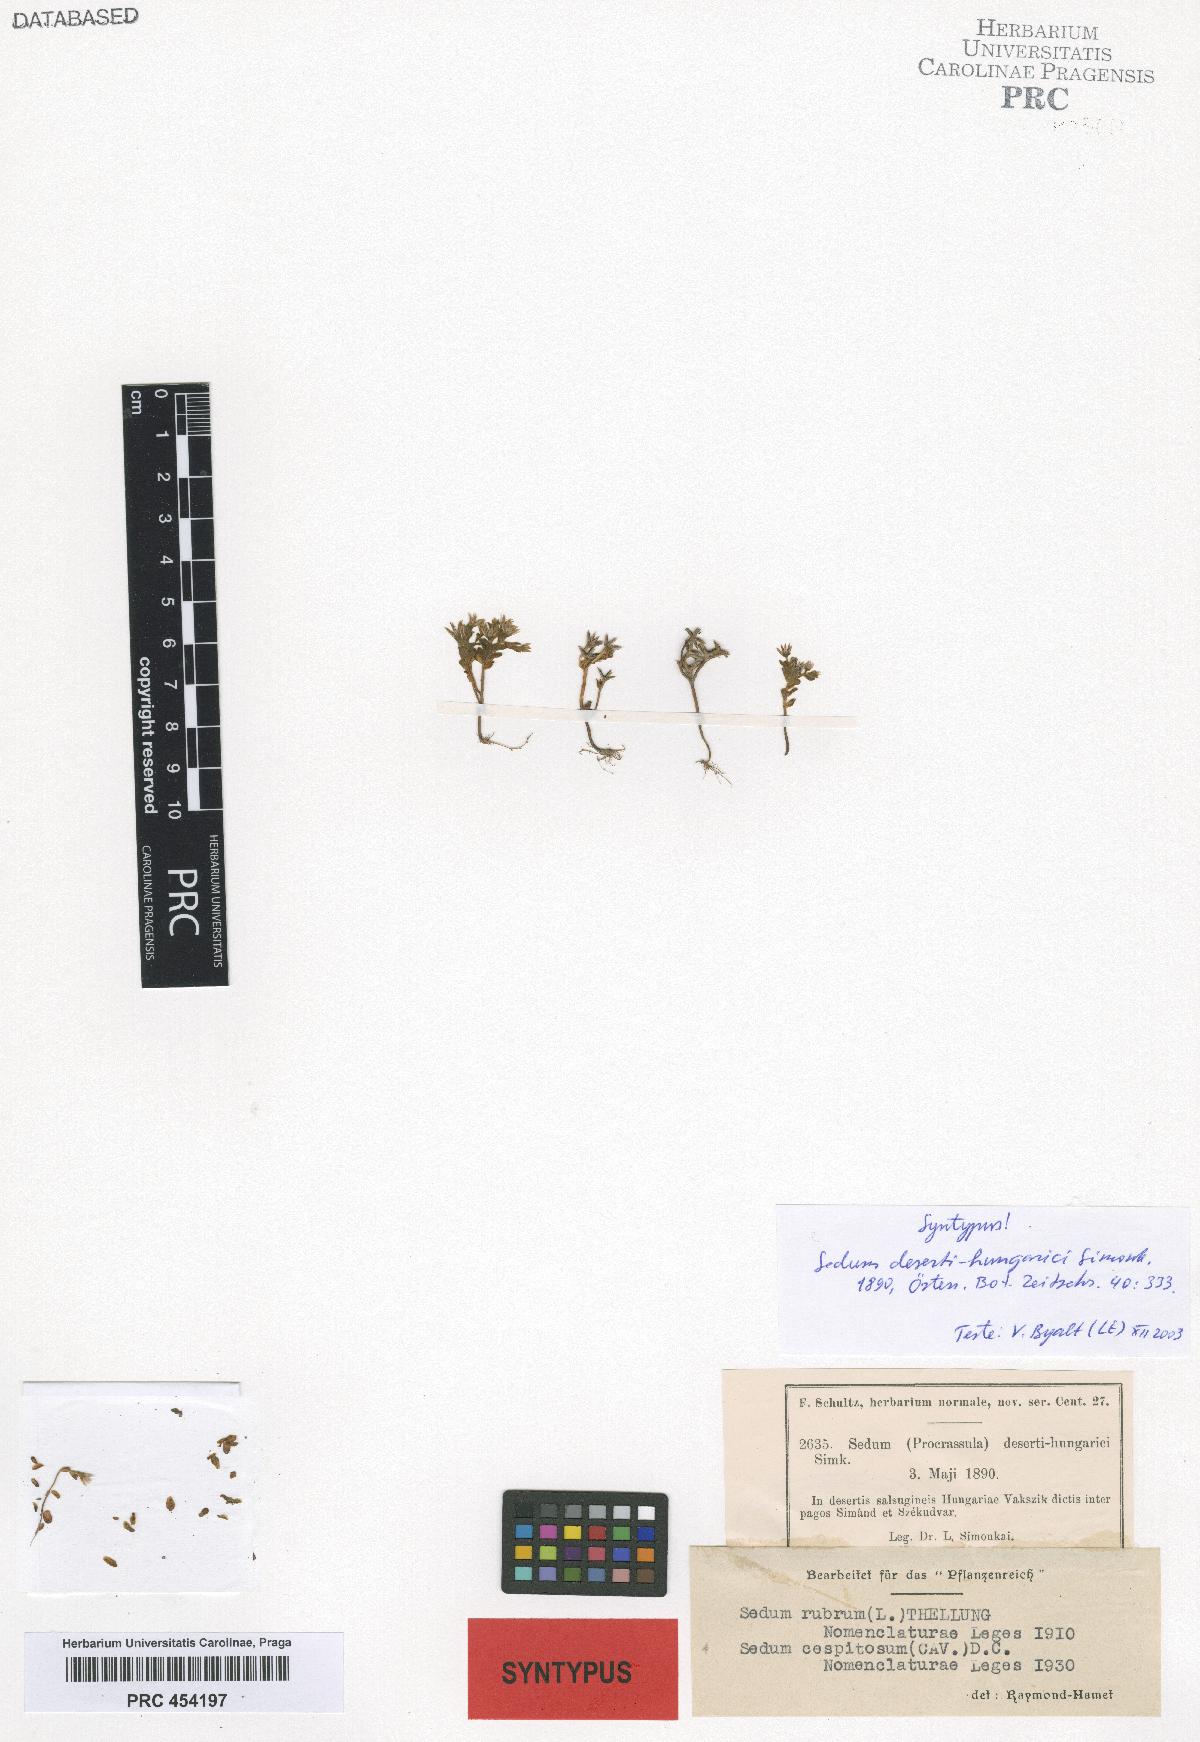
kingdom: Plantae
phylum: Tracheophyta
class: Magnoliopsida
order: Saxifragales
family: Crassulaceae
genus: Sedum
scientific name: Sedum cespitosum
